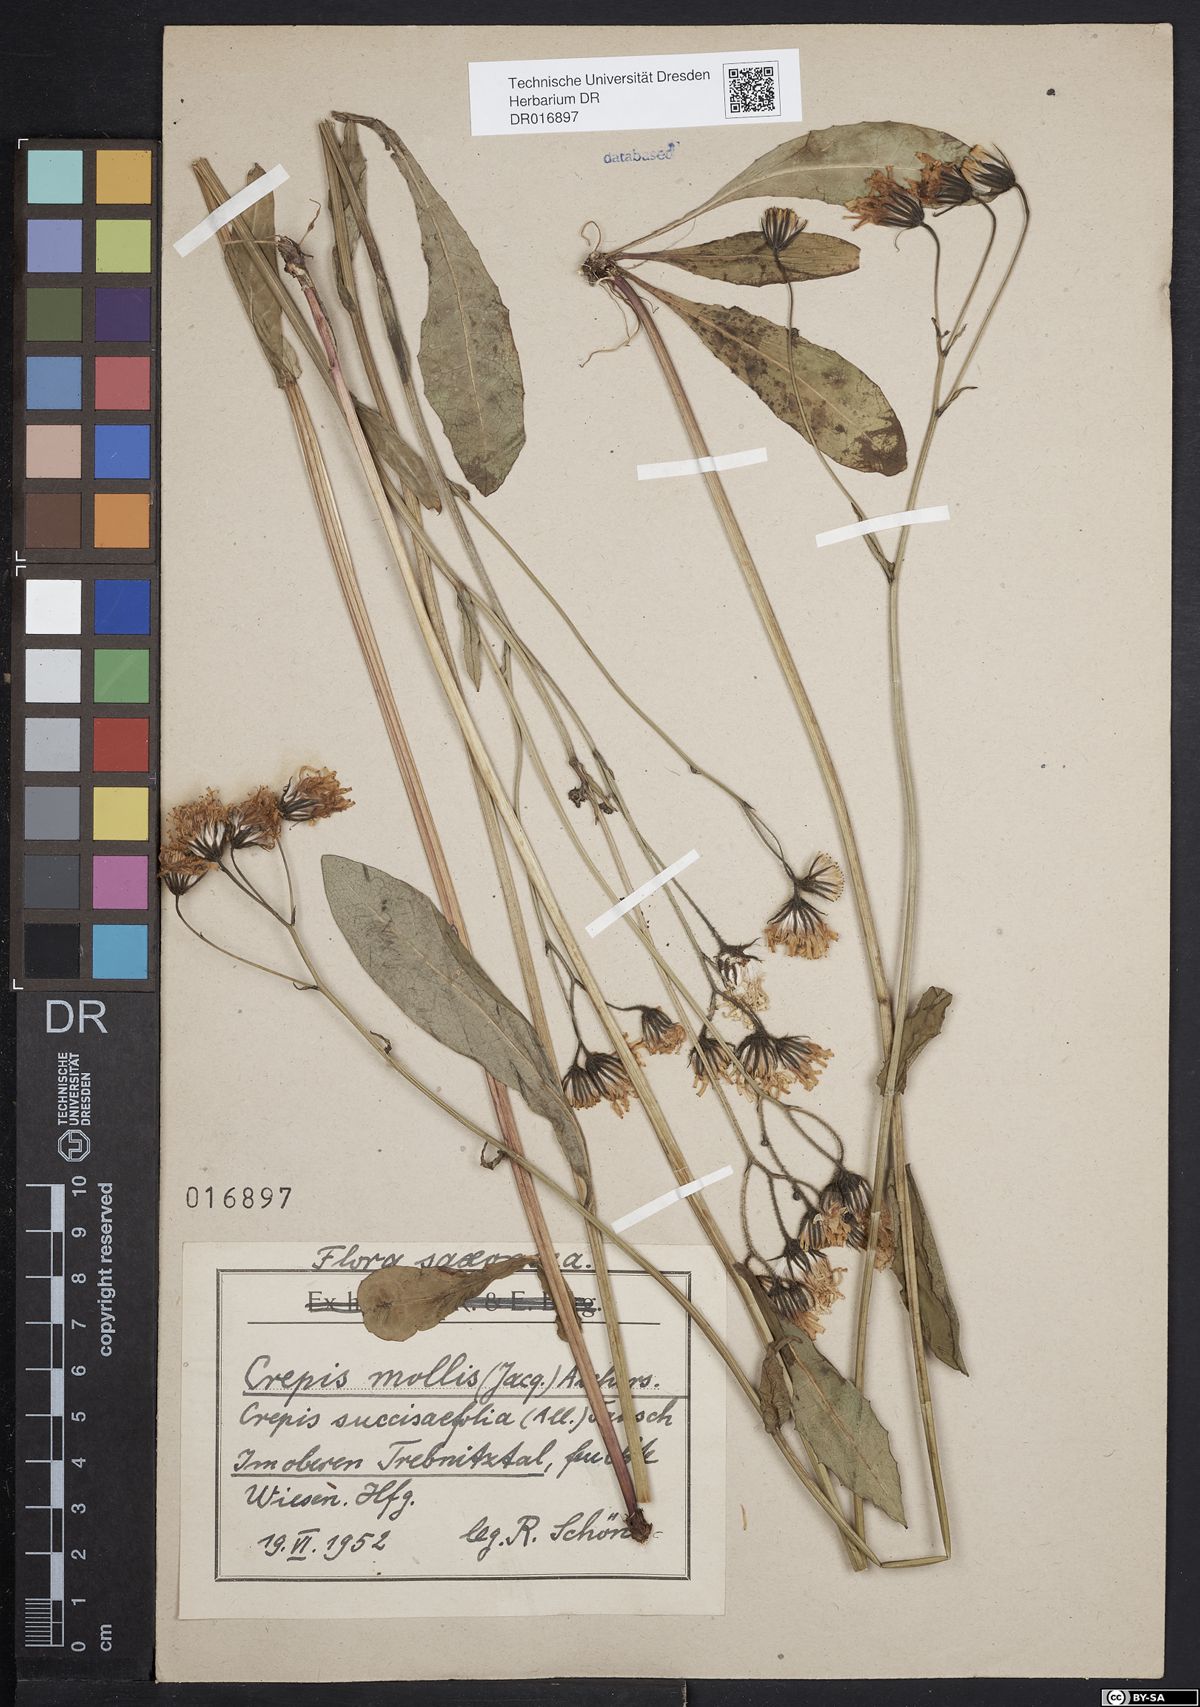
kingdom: Plantae
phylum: Tracheophyta
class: Magnoliopsida
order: Asterales
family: Asteraceae
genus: Crepis
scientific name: Crepis mollis
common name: Northern hawk's-beard
